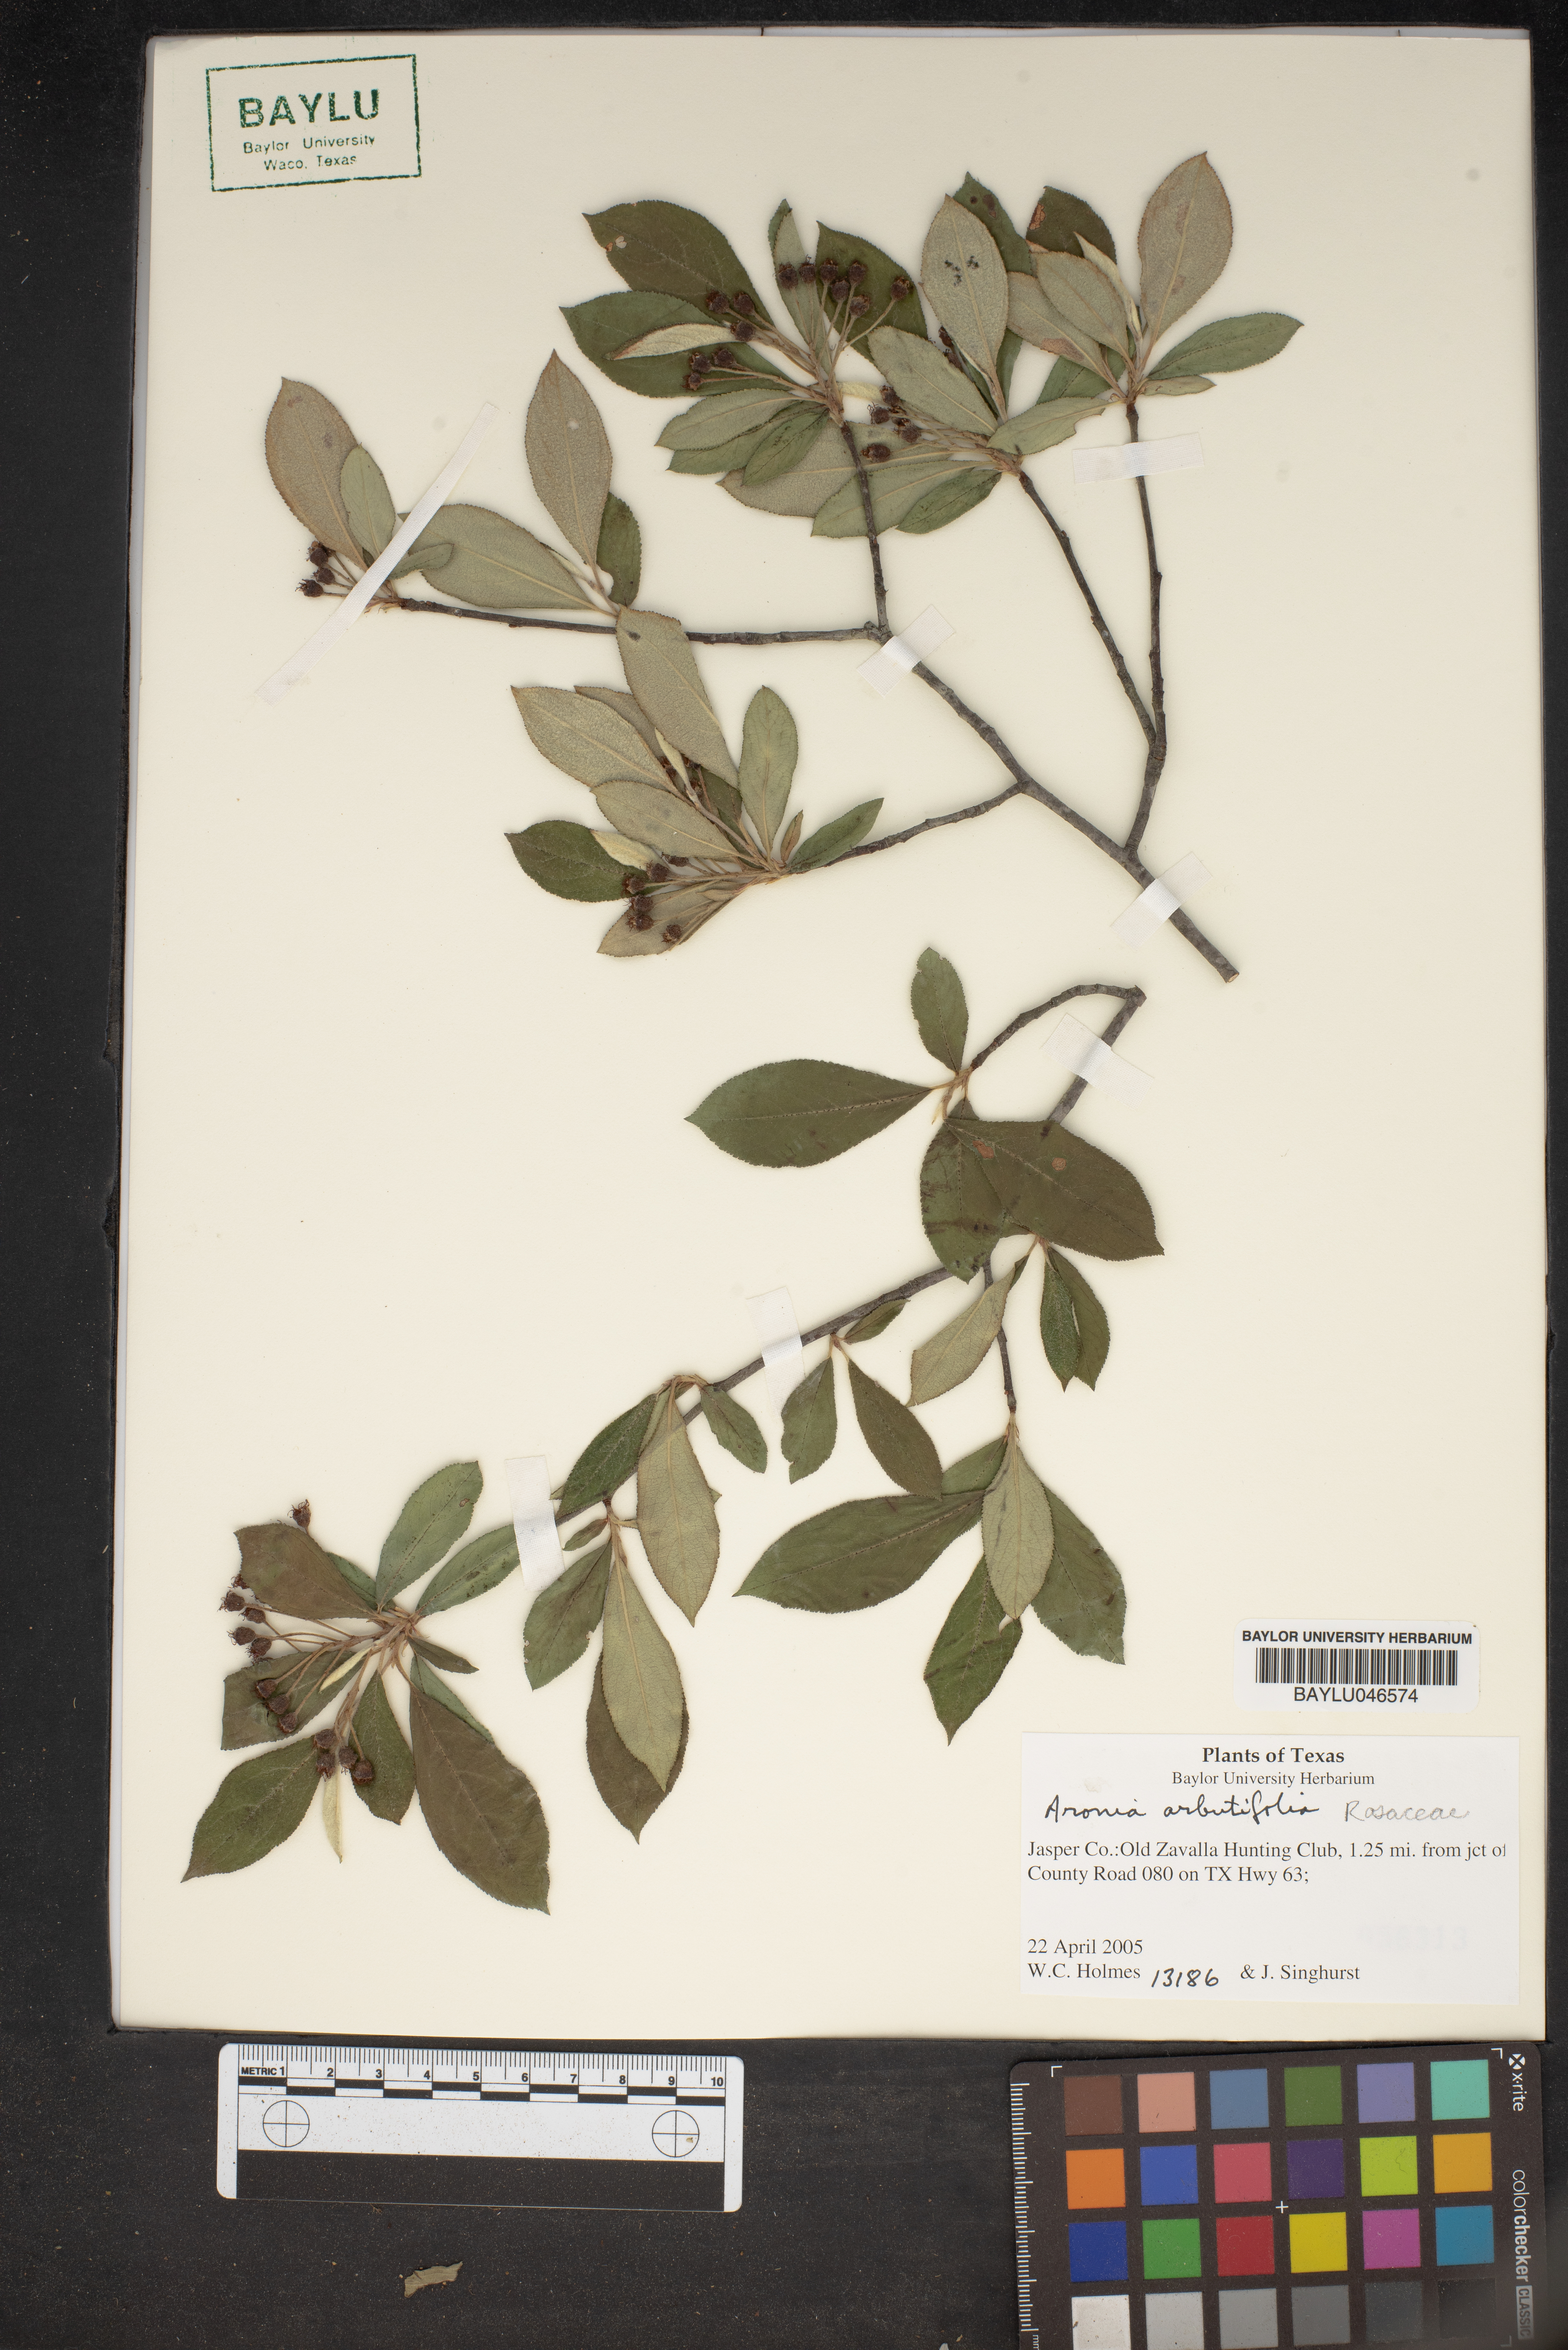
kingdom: Plantae
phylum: Tracheophyta
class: Magnoliopsida
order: Rosales
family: Rosaceae
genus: Aronia
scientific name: Aronia arbutifolia
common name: Red chokeberry
